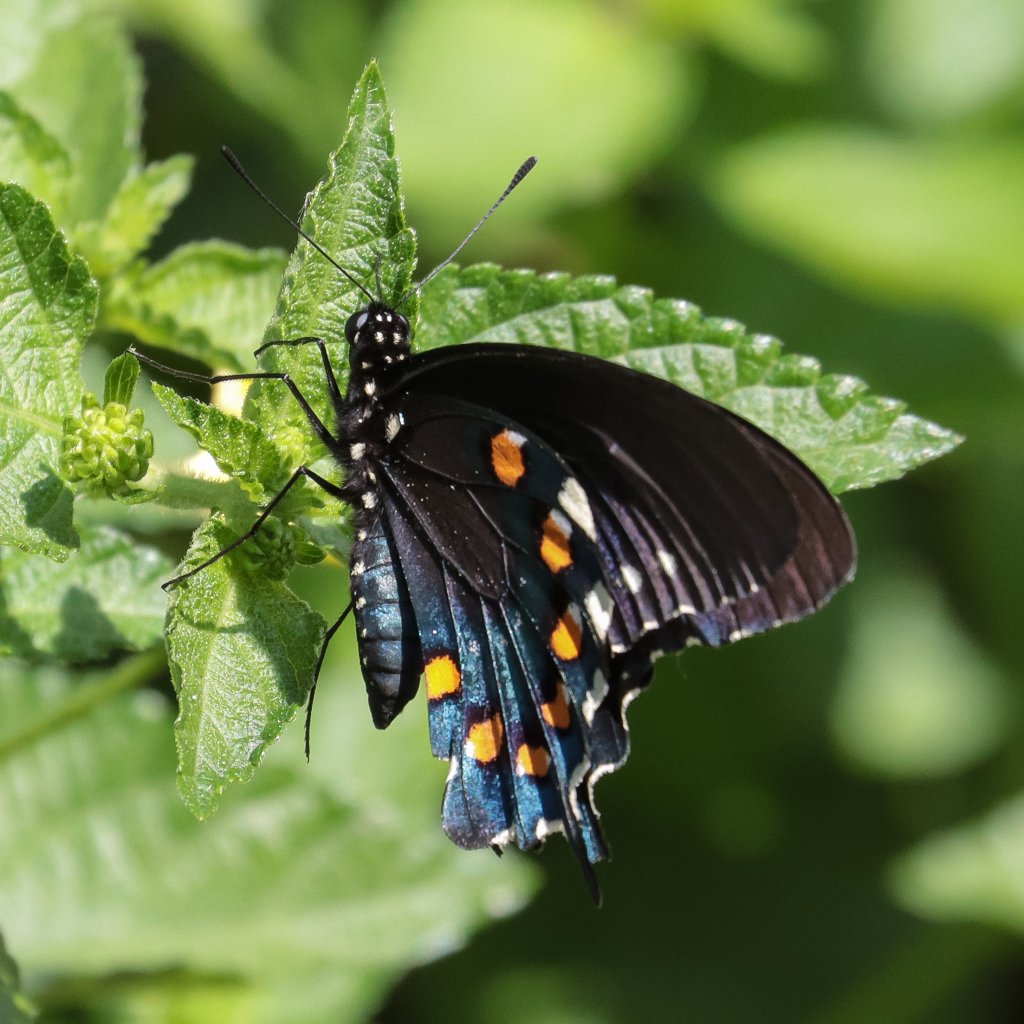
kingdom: Animalia
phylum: Arthropoda
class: Insecta
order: Lepidoptera
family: Papilionidae
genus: Battus
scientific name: Battus philenor
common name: Pipevine Swallowtail
